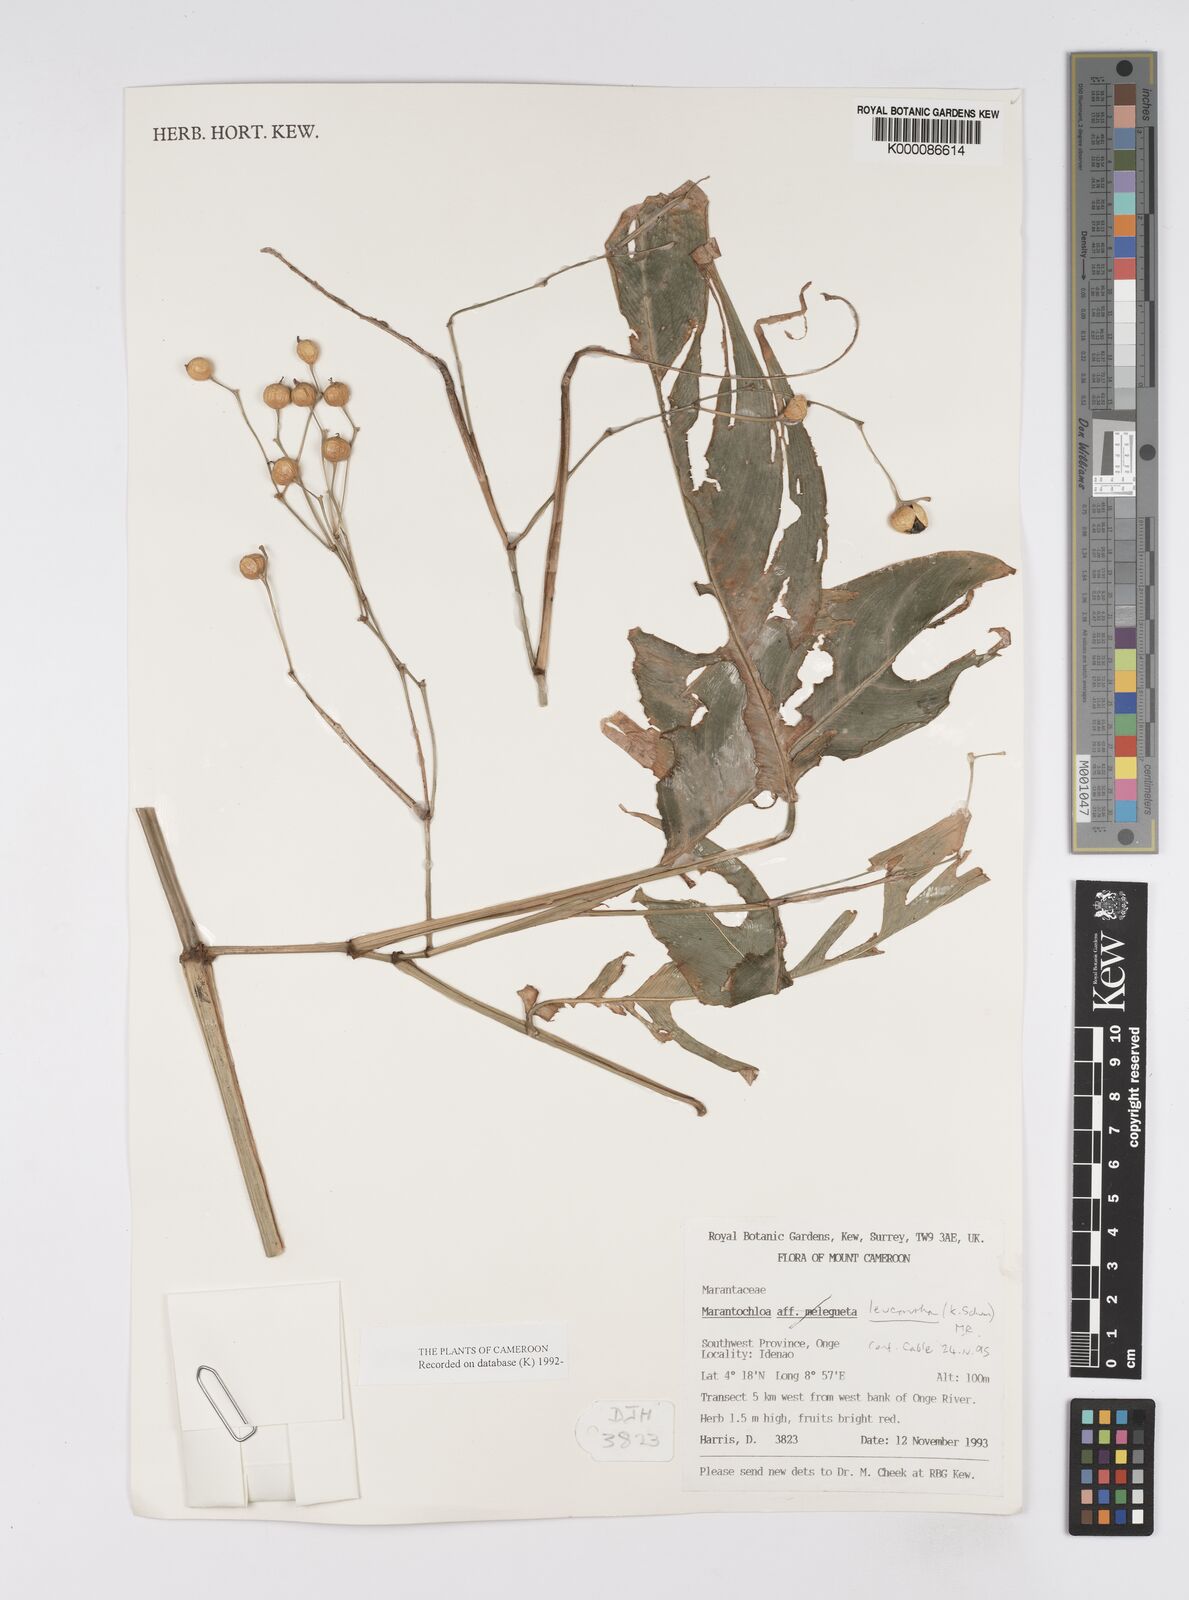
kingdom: Plantae
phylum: Tracheophyta
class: Liliopsida
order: Zingiberales
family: Marantaceae
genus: Marantochloa
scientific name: Marantochloa leucantha
